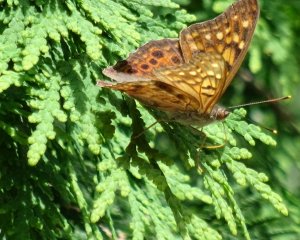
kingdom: Animalia
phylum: Arthropoda
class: Insecta
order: Lepidoptera
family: Nymphalidae
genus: Asterocampa
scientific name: Asterocampa clyton
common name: Tawny Emperor
